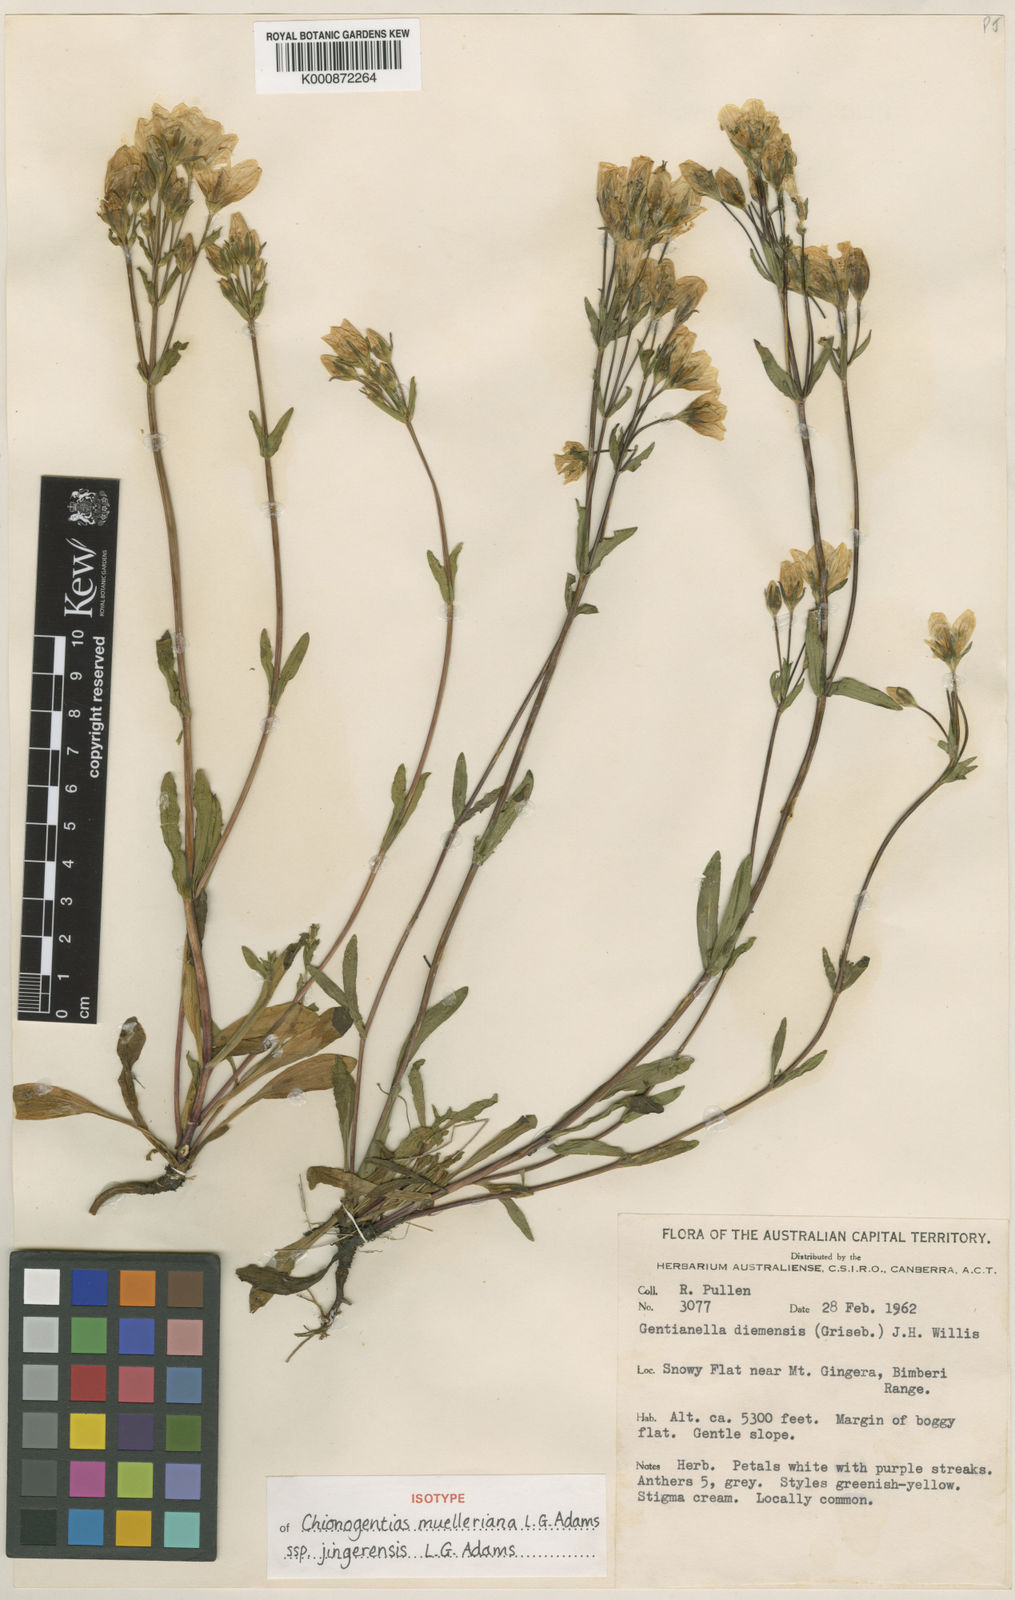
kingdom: Plantae
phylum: Tracheophyta
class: Magnoliopsida
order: Gentianales
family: Gentianaceae
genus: Gentianella
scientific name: Gentianella muelleriana
